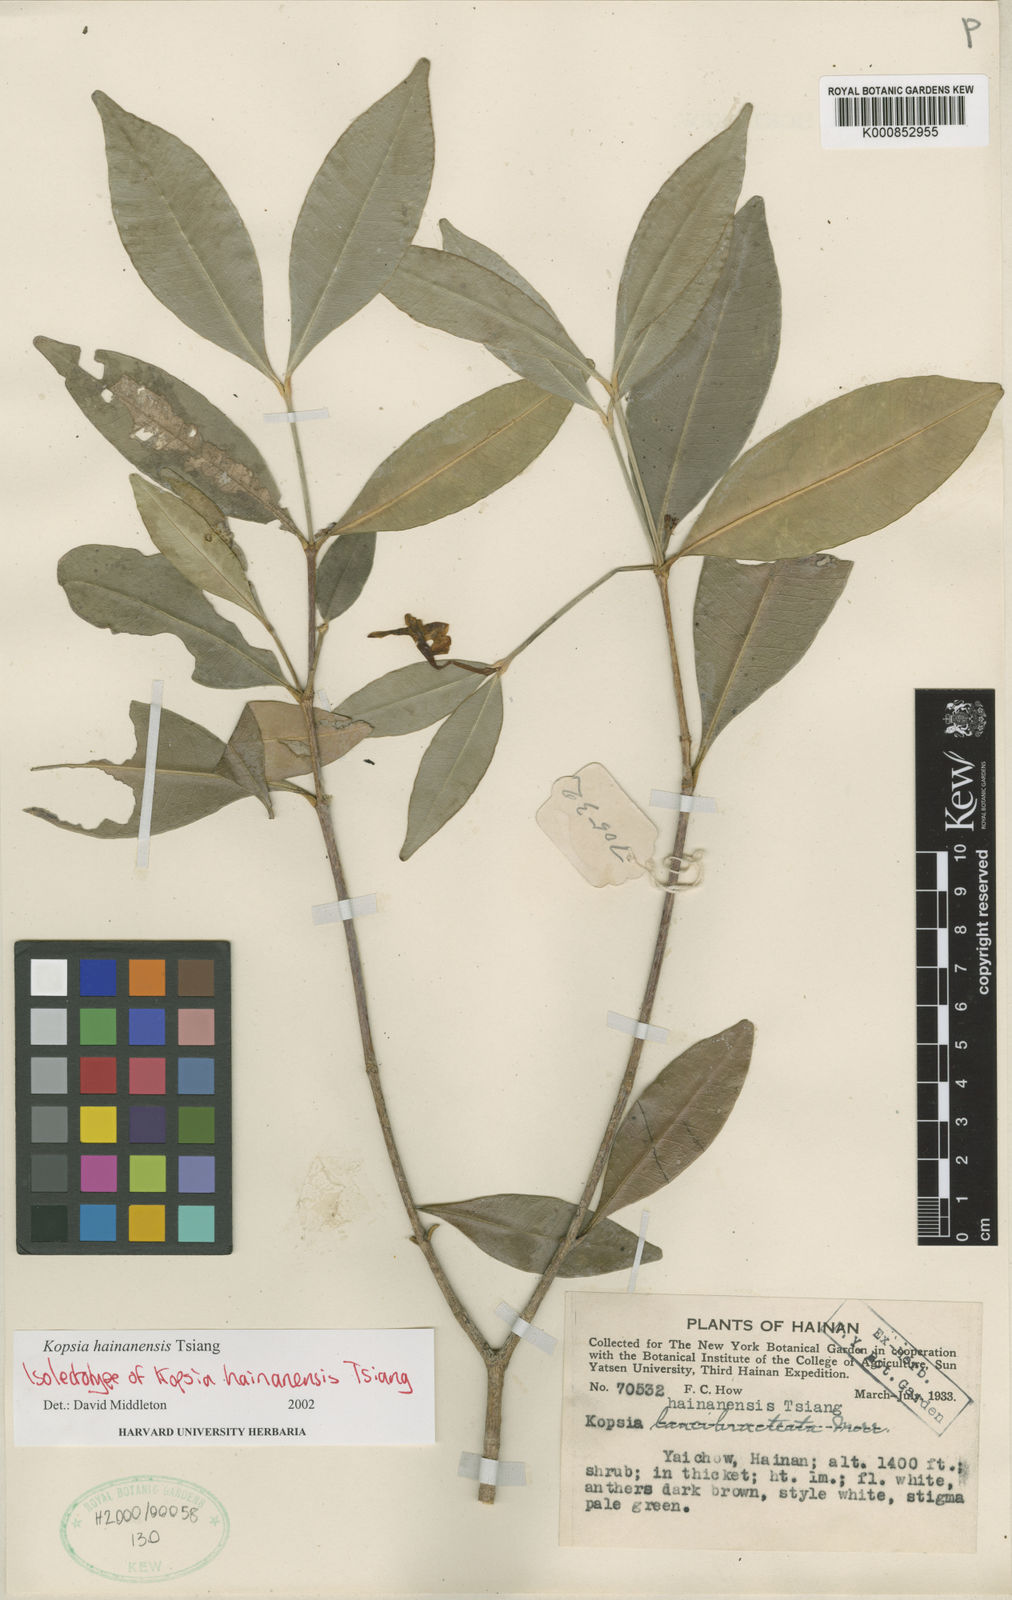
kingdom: Plantae
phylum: Tracheophyta
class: Magnoliopsida
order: Gentianales
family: Apocynaceae
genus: Kopsia
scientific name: Kopsia hainanensis
